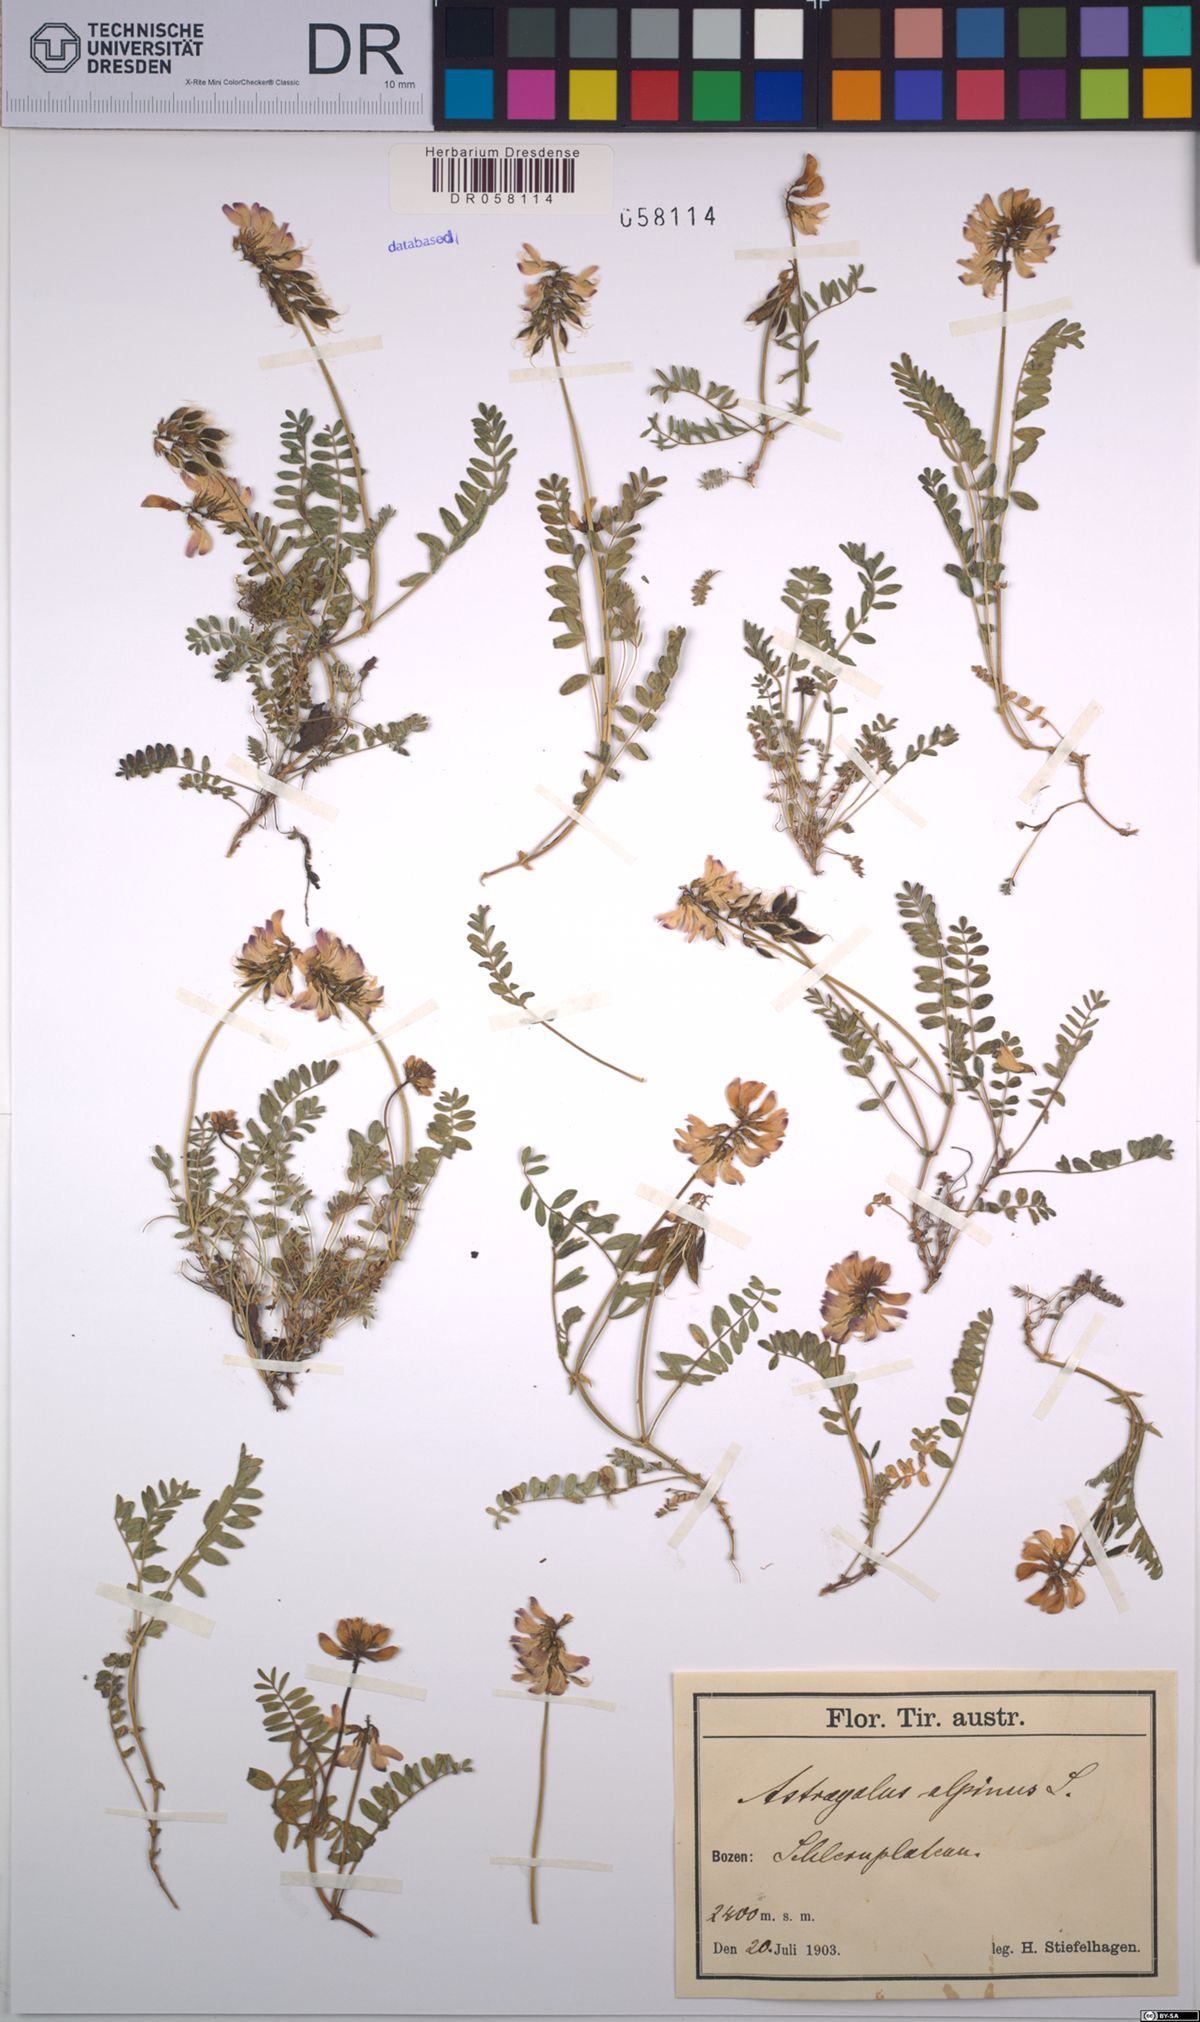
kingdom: Plantae
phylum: Tracheophyta
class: Magnoliopsida
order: Fabales
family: Fabaceae
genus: Astragalus
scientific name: Astragalus alpinus
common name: Alpine milk-vetch
